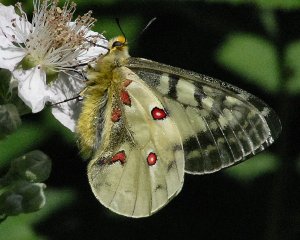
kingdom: Animalia
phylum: Arthropoda
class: Insecta
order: Lepidoptera
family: Papilionidae
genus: Parnassius
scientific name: Parnassius clodius
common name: Clodius Parnassian
